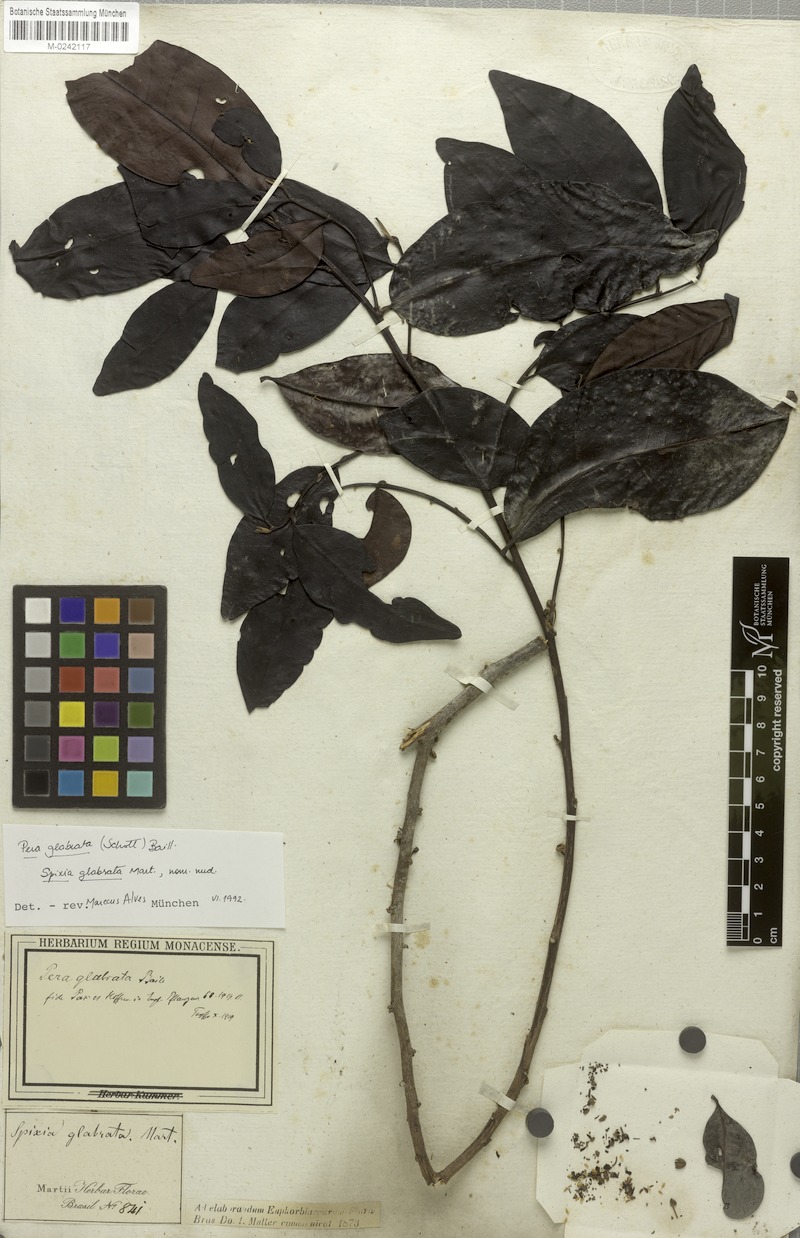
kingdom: Plantae
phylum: Tracheophyta
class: Magnoliopsida
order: Malpighiales
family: Peraceae
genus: Pera
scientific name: Pera glabrata
